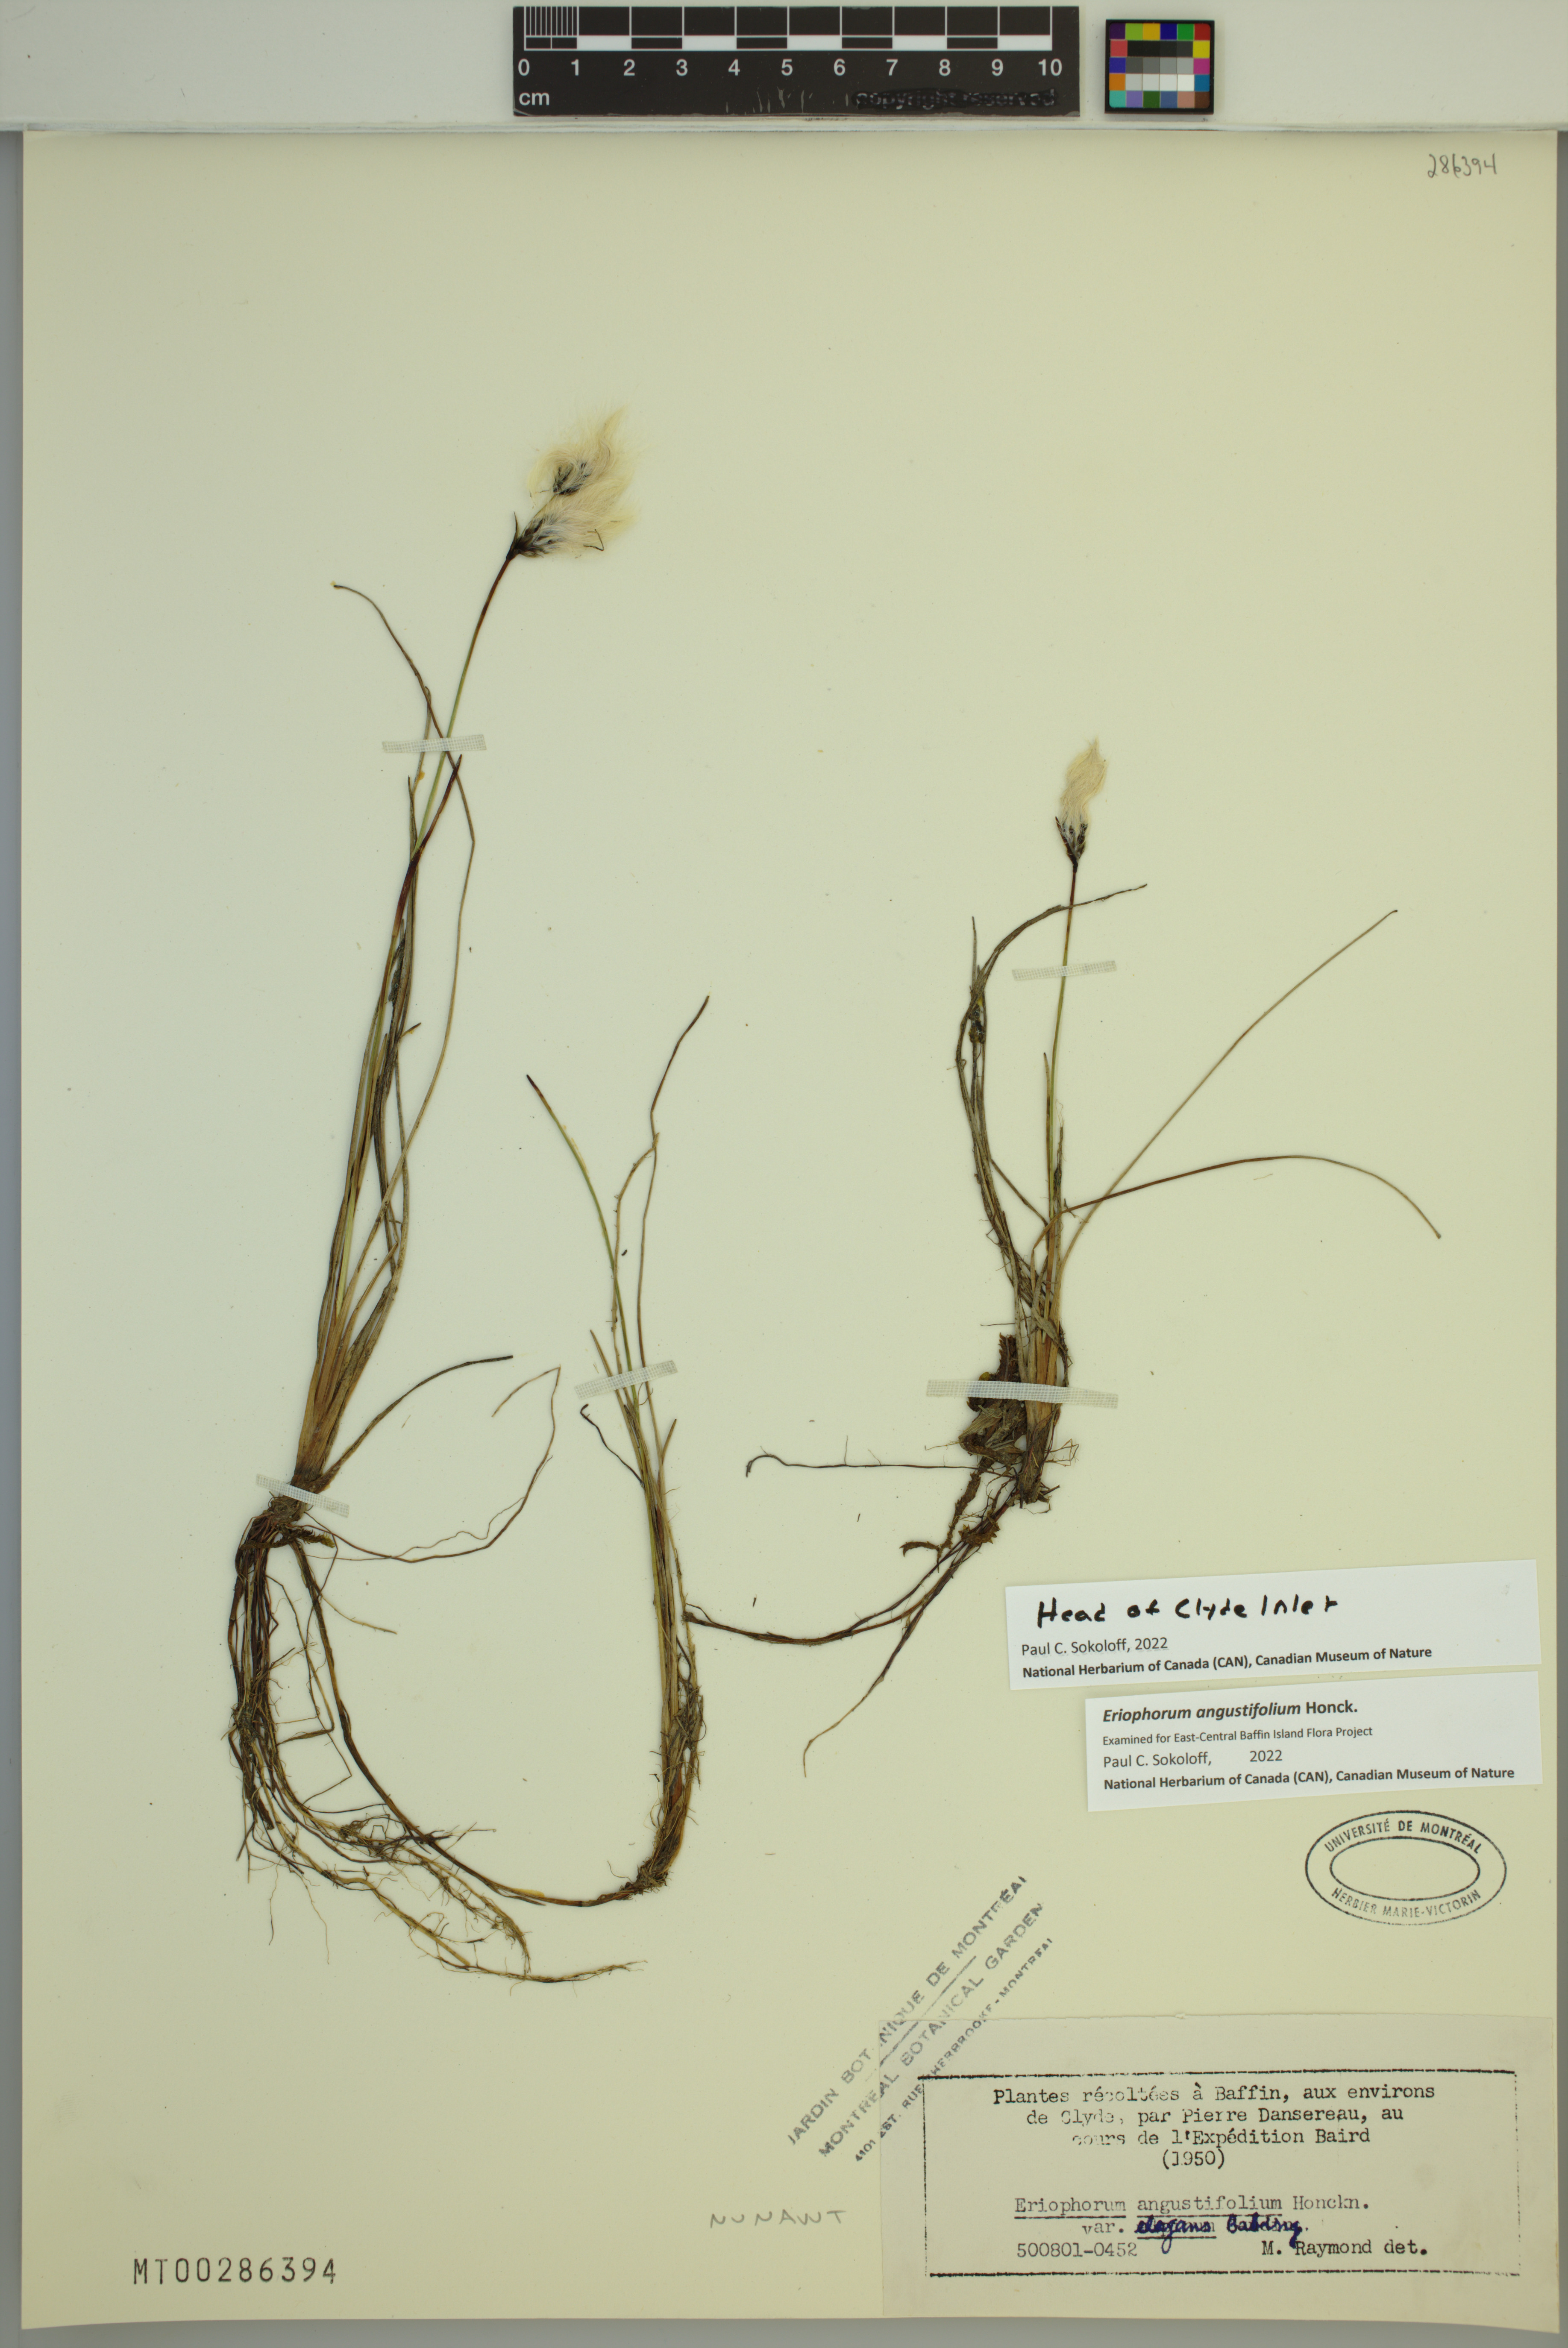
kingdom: Plantae
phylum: Tracheophyta
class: Liliopsida
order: Poales
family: Cyperaceae
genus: Eriophorum
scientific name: Eriophorum angustifolium
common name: Common cottongrass
